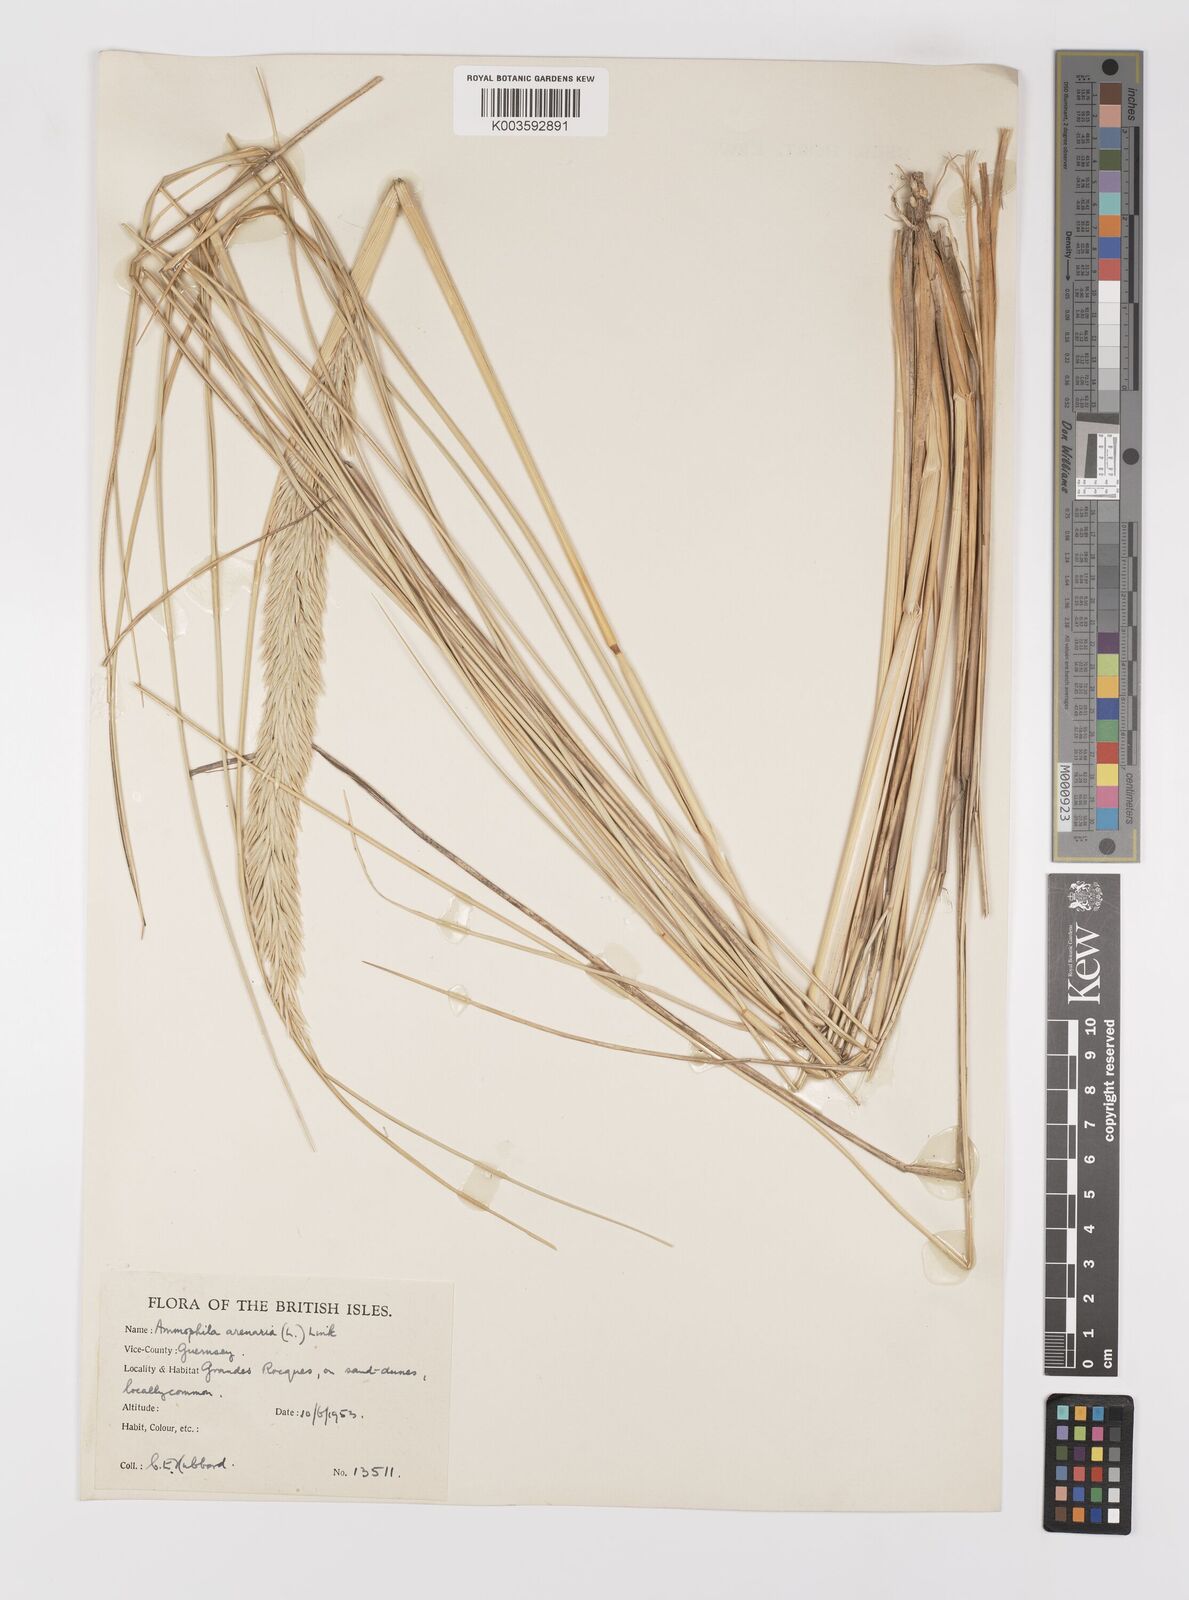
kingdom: Plantae
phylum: Tracheophyta
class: Liliopsida
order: Poales
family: Poaceae
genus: Calamagrostis
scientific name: Calamagrostis arenaria
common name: European beachgrass
